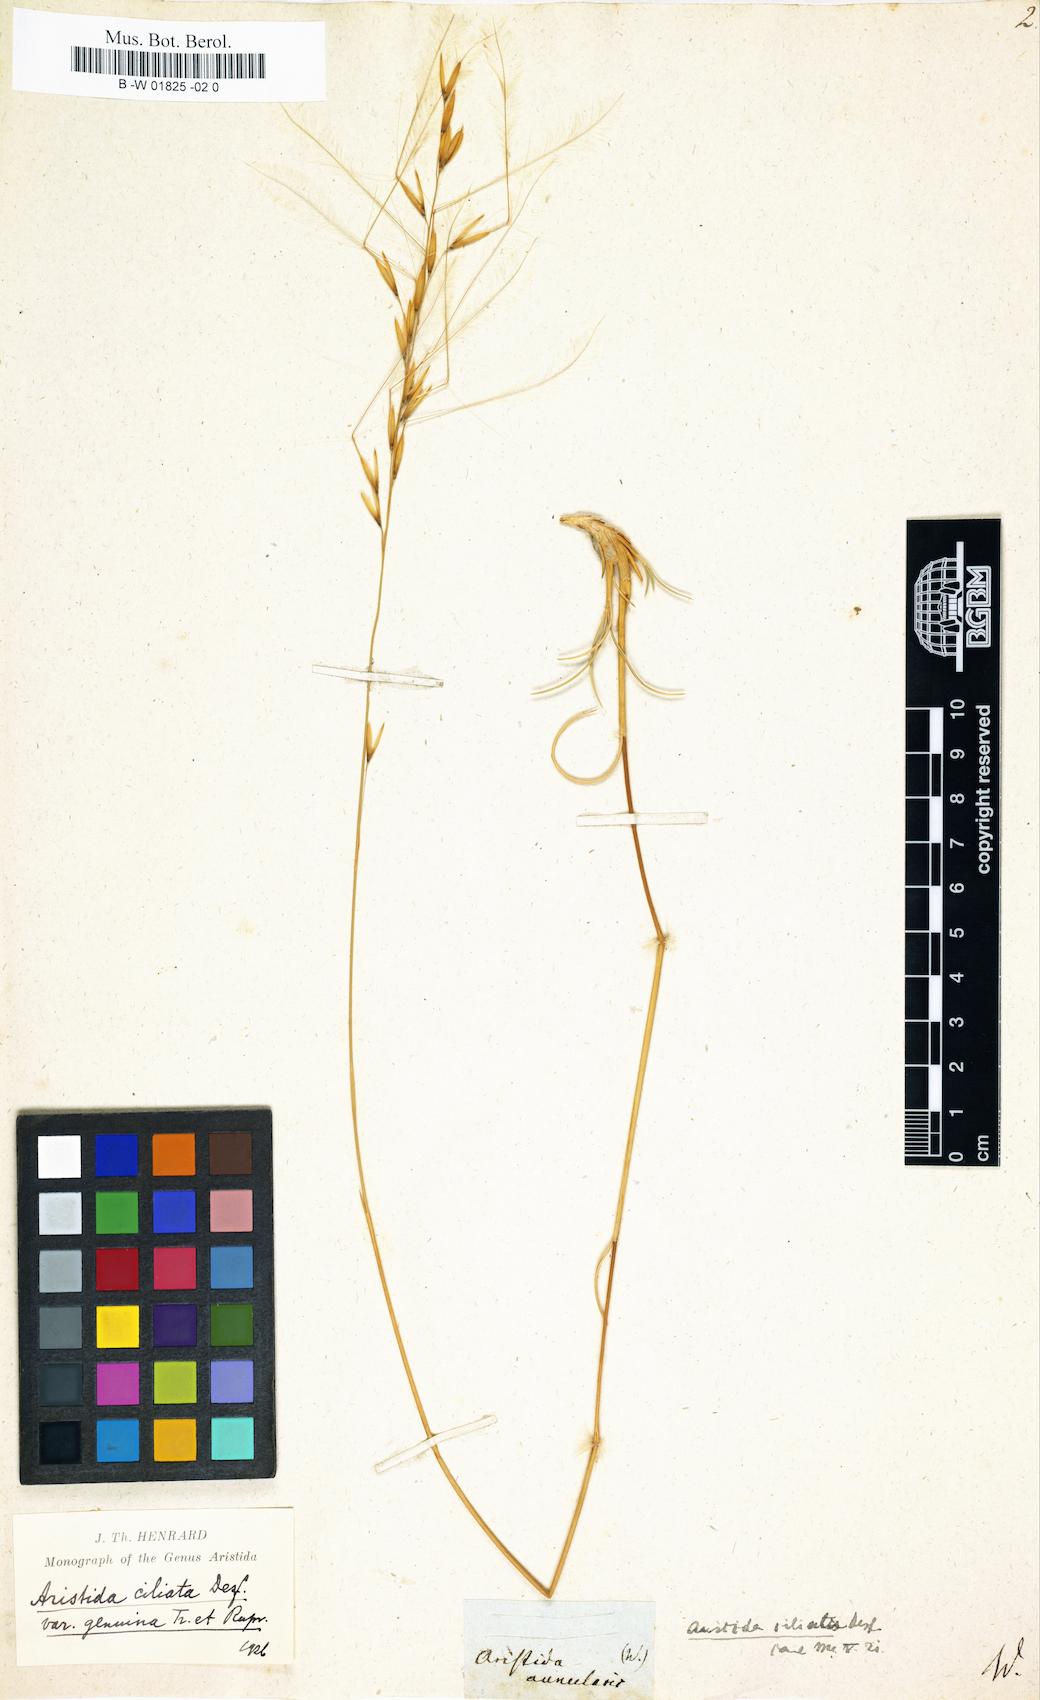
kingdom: Plantae
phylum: Tracheophyta
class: Liliopsida
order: Poales
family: Poaceae
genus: Stipagrostis
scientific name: Stipagrostis ciliata
